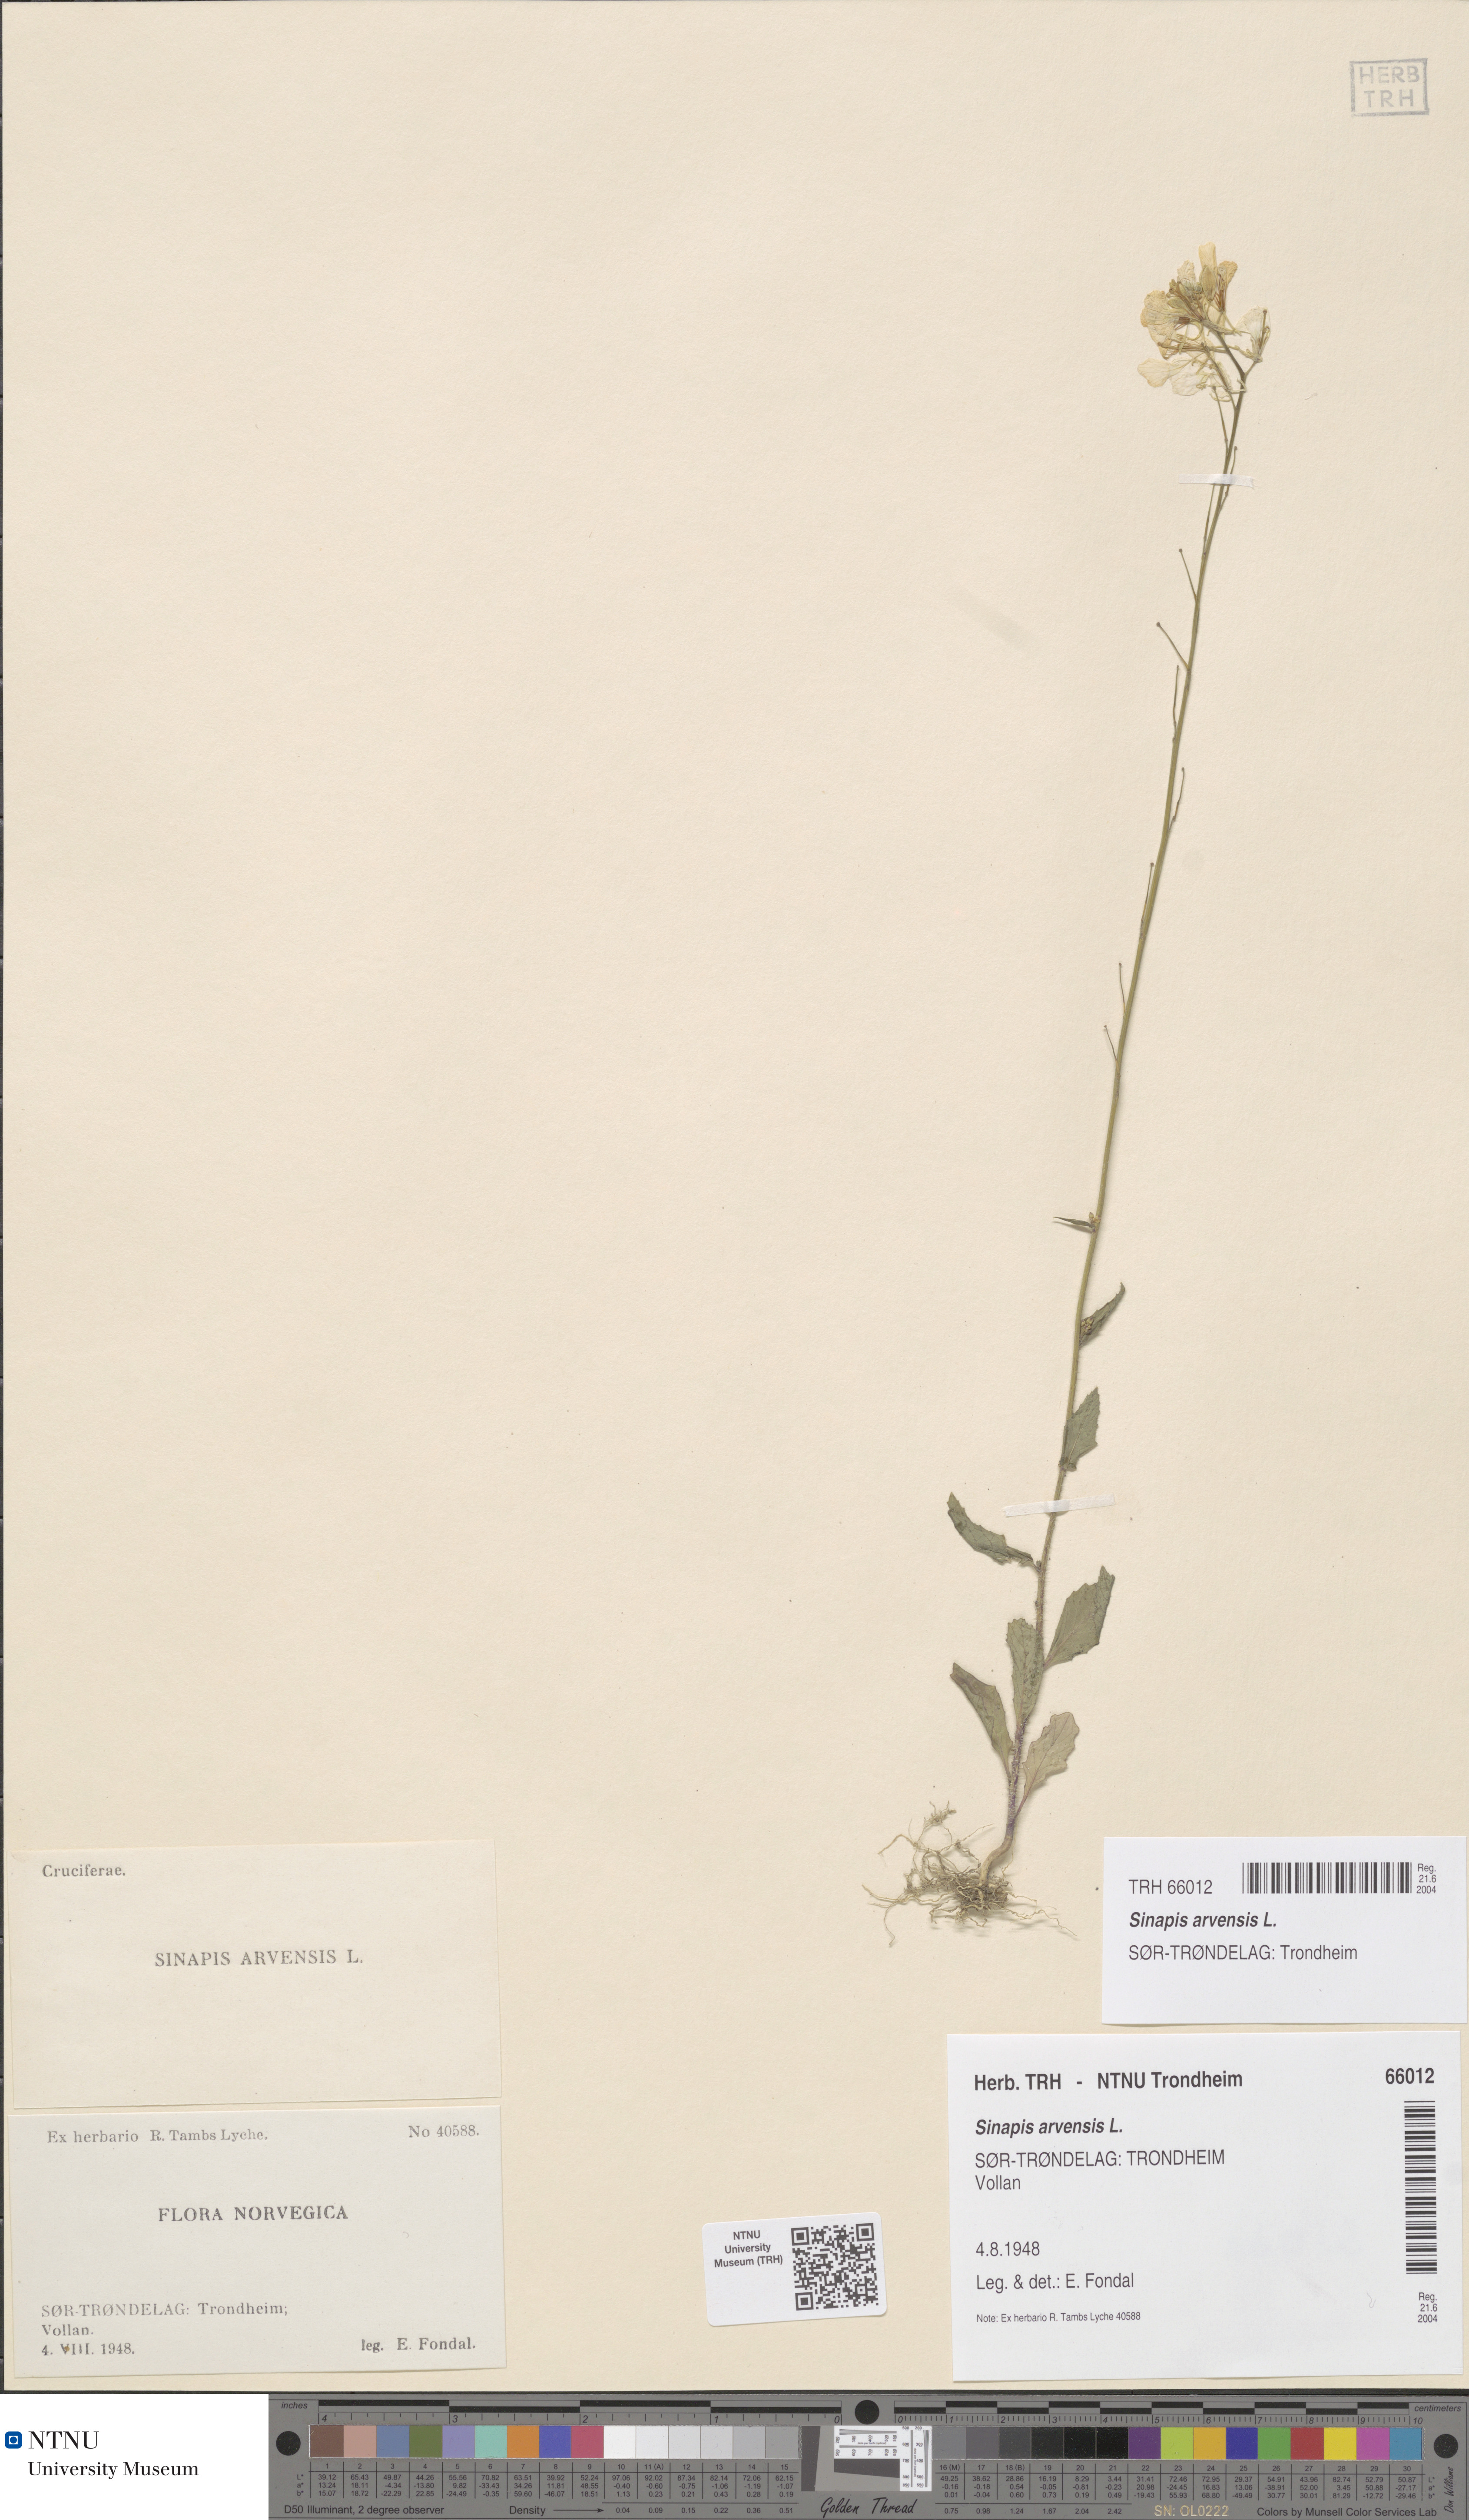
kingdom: Plantae
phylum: Tracheophyta
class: Magnoliopsida
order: Brassicales
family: Brassicaceae
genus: Sinapis
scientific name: Sinapis arvensis
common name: Charlock
